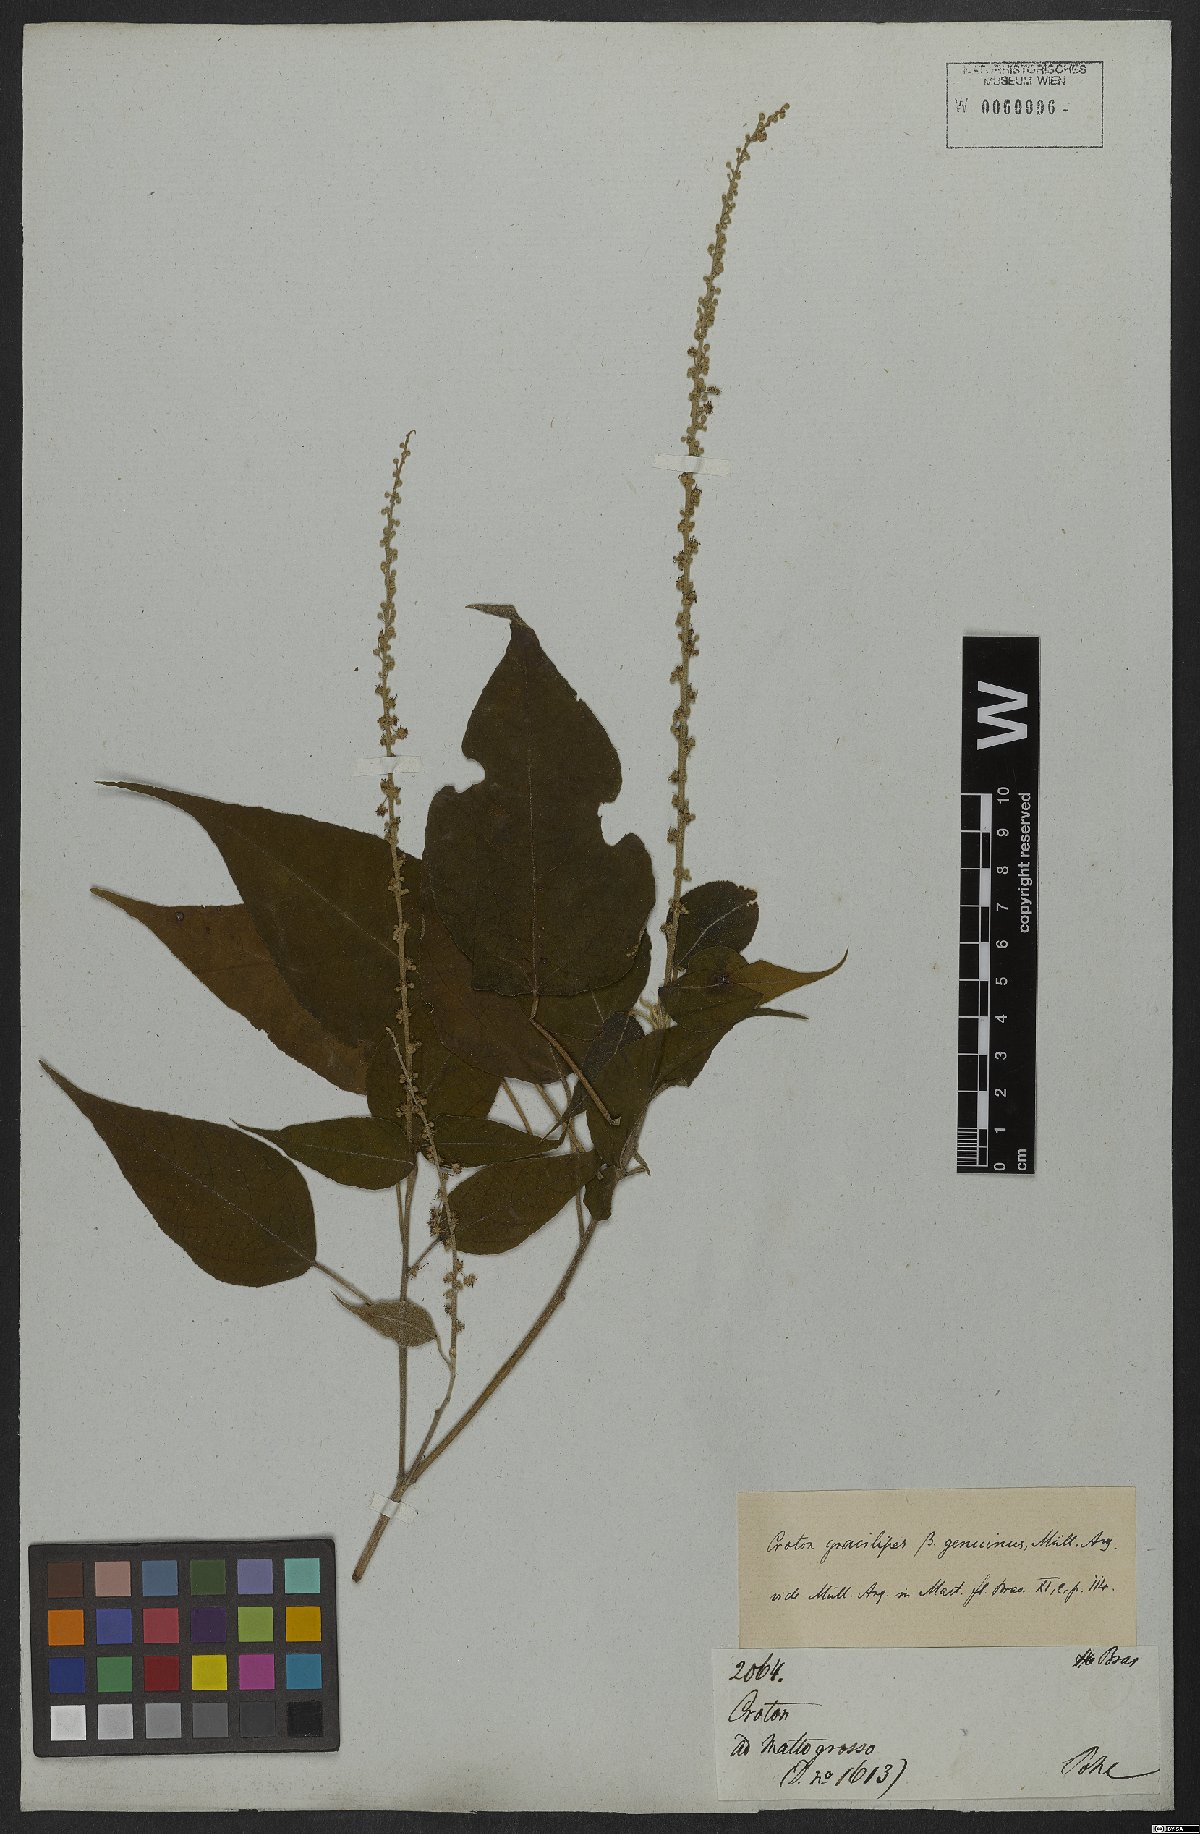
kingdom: Plantae
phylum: Tracheophyta
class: Magnoliopsida
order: Malpighiales
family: Euphorbiaceae
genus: Croton
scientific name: Croton gracilipes
